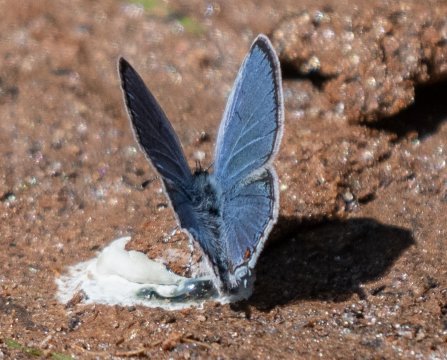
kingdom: Animalia
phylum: Arthropoda
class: Insecta
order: Lepidoptera
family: Lycaenidae
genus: Elkalyce
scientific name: Elkalyce comyntas
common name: Eastern Tailed-Blue
